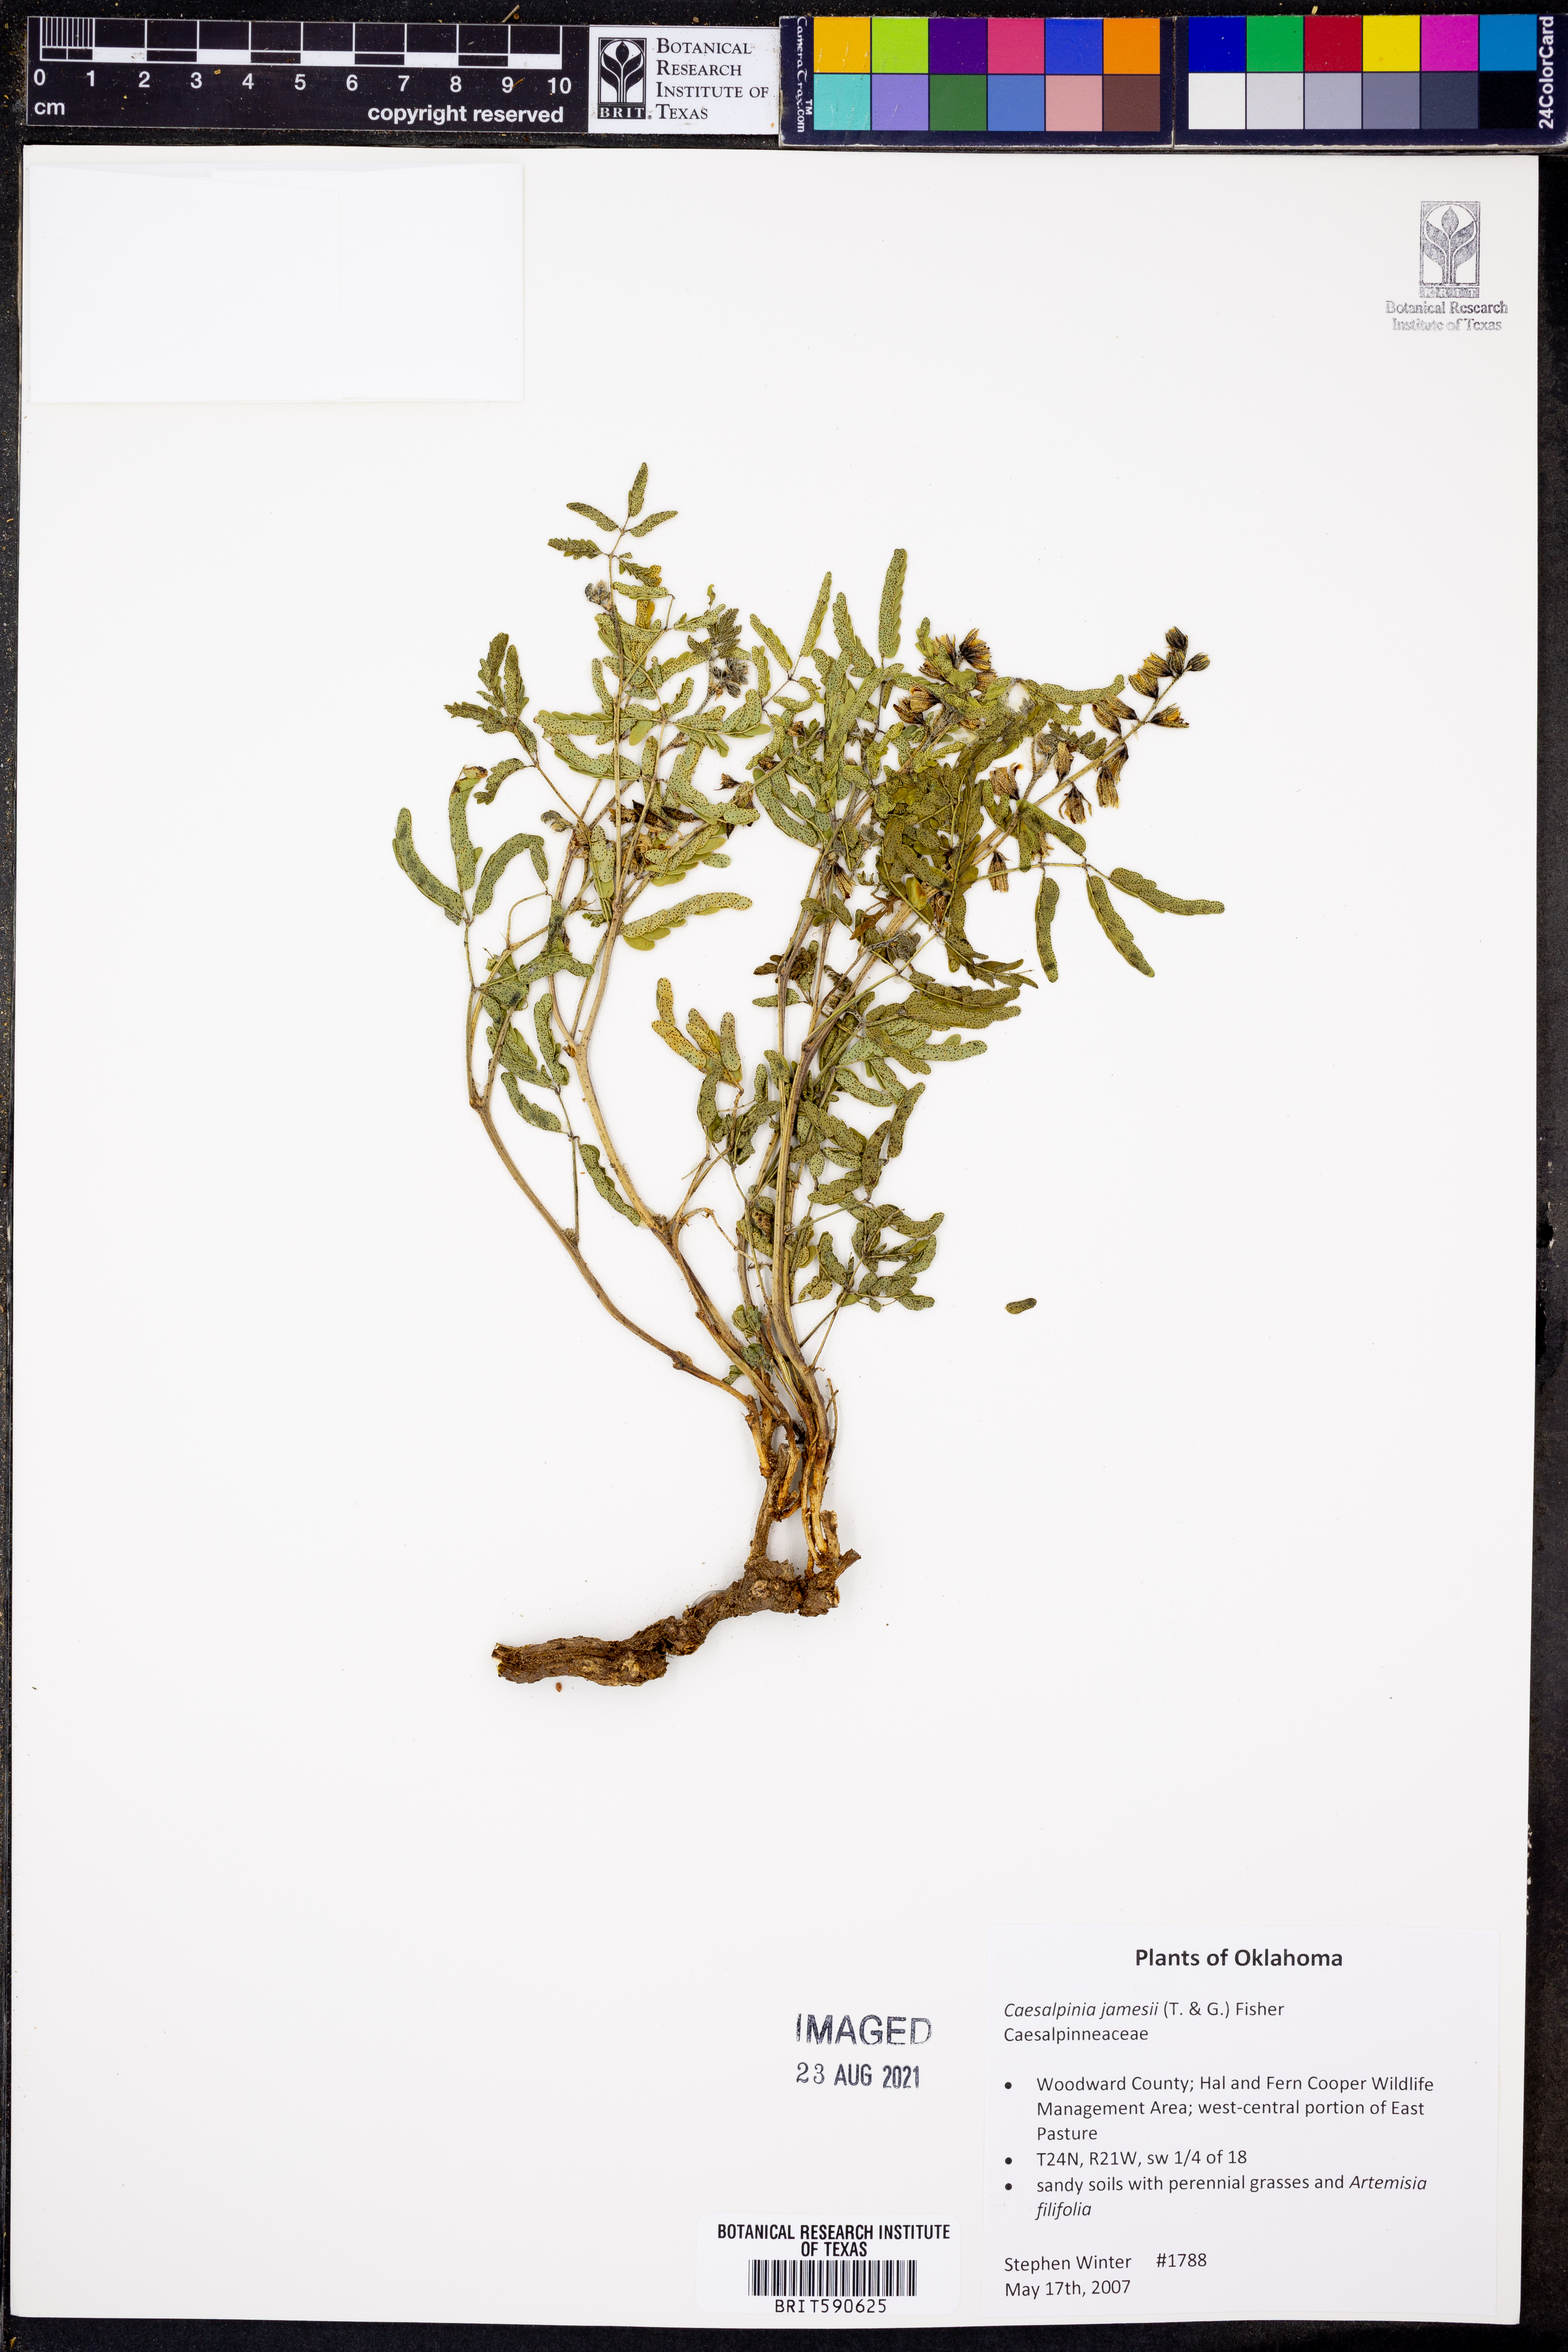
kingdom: Plantae
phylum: Tracheophyta
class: Magnoliopsida
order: Fabales
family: Fabaceae
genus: Pomaria
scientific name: Pomaria jamesii
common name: James' caesalpinia
